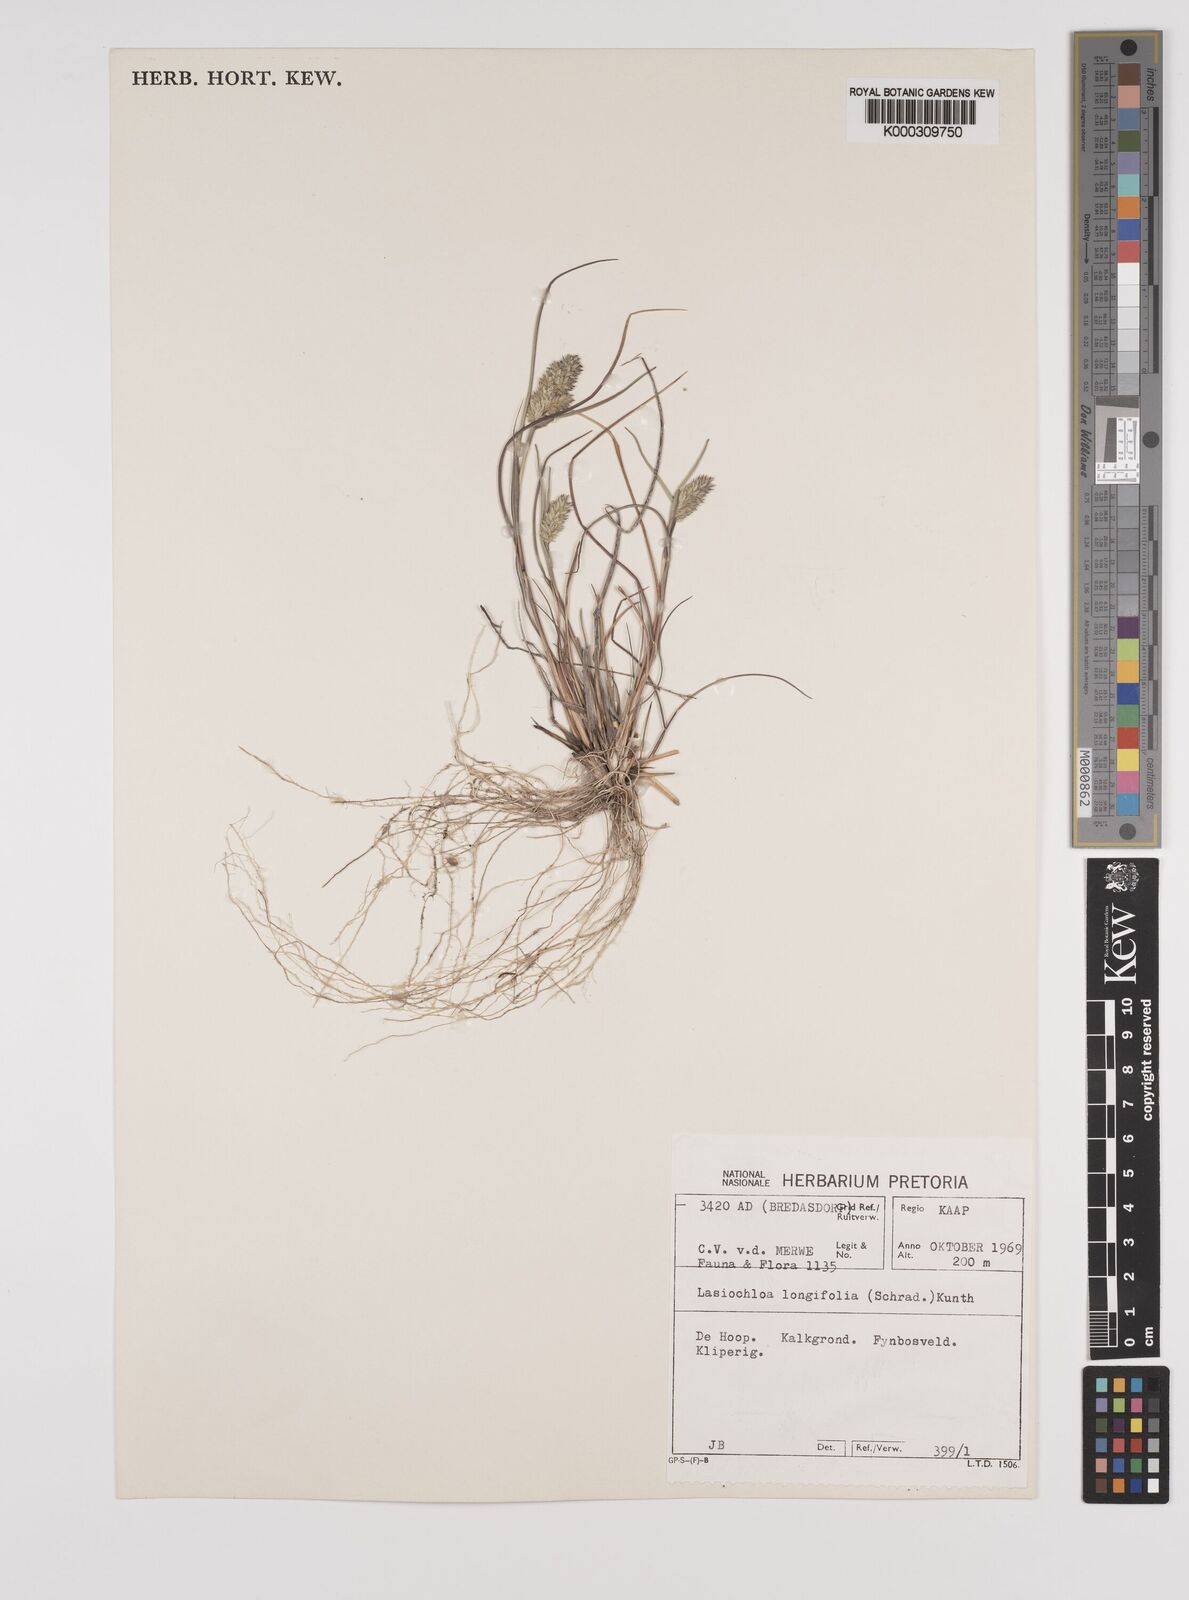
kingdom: Plantae
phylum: Tracheophyta
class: Liliopsida
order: Poales
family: Poaceae
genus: Tribolium
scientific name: Tribolium hispidum
